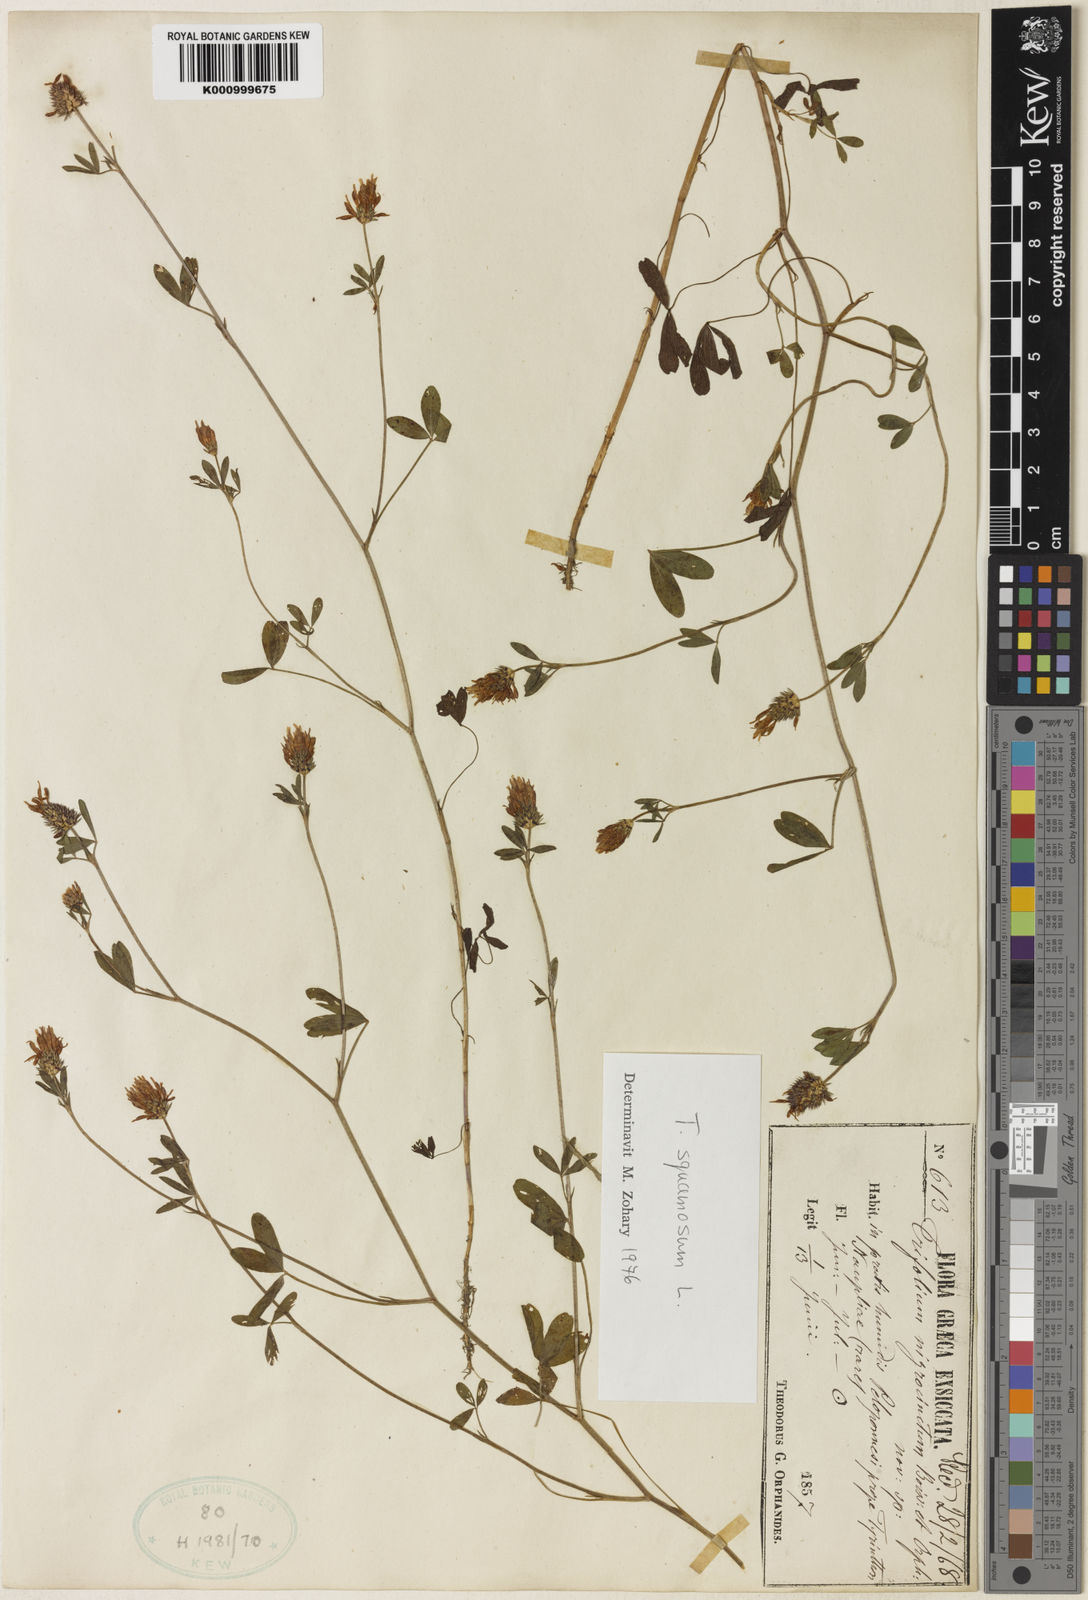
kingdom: Plantae
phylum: Tracheophyta
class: Magnoliopsida
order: Fabales
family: Fabaceae
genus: Trifolium
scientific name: Trifolium squamosum
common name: Sea clover
